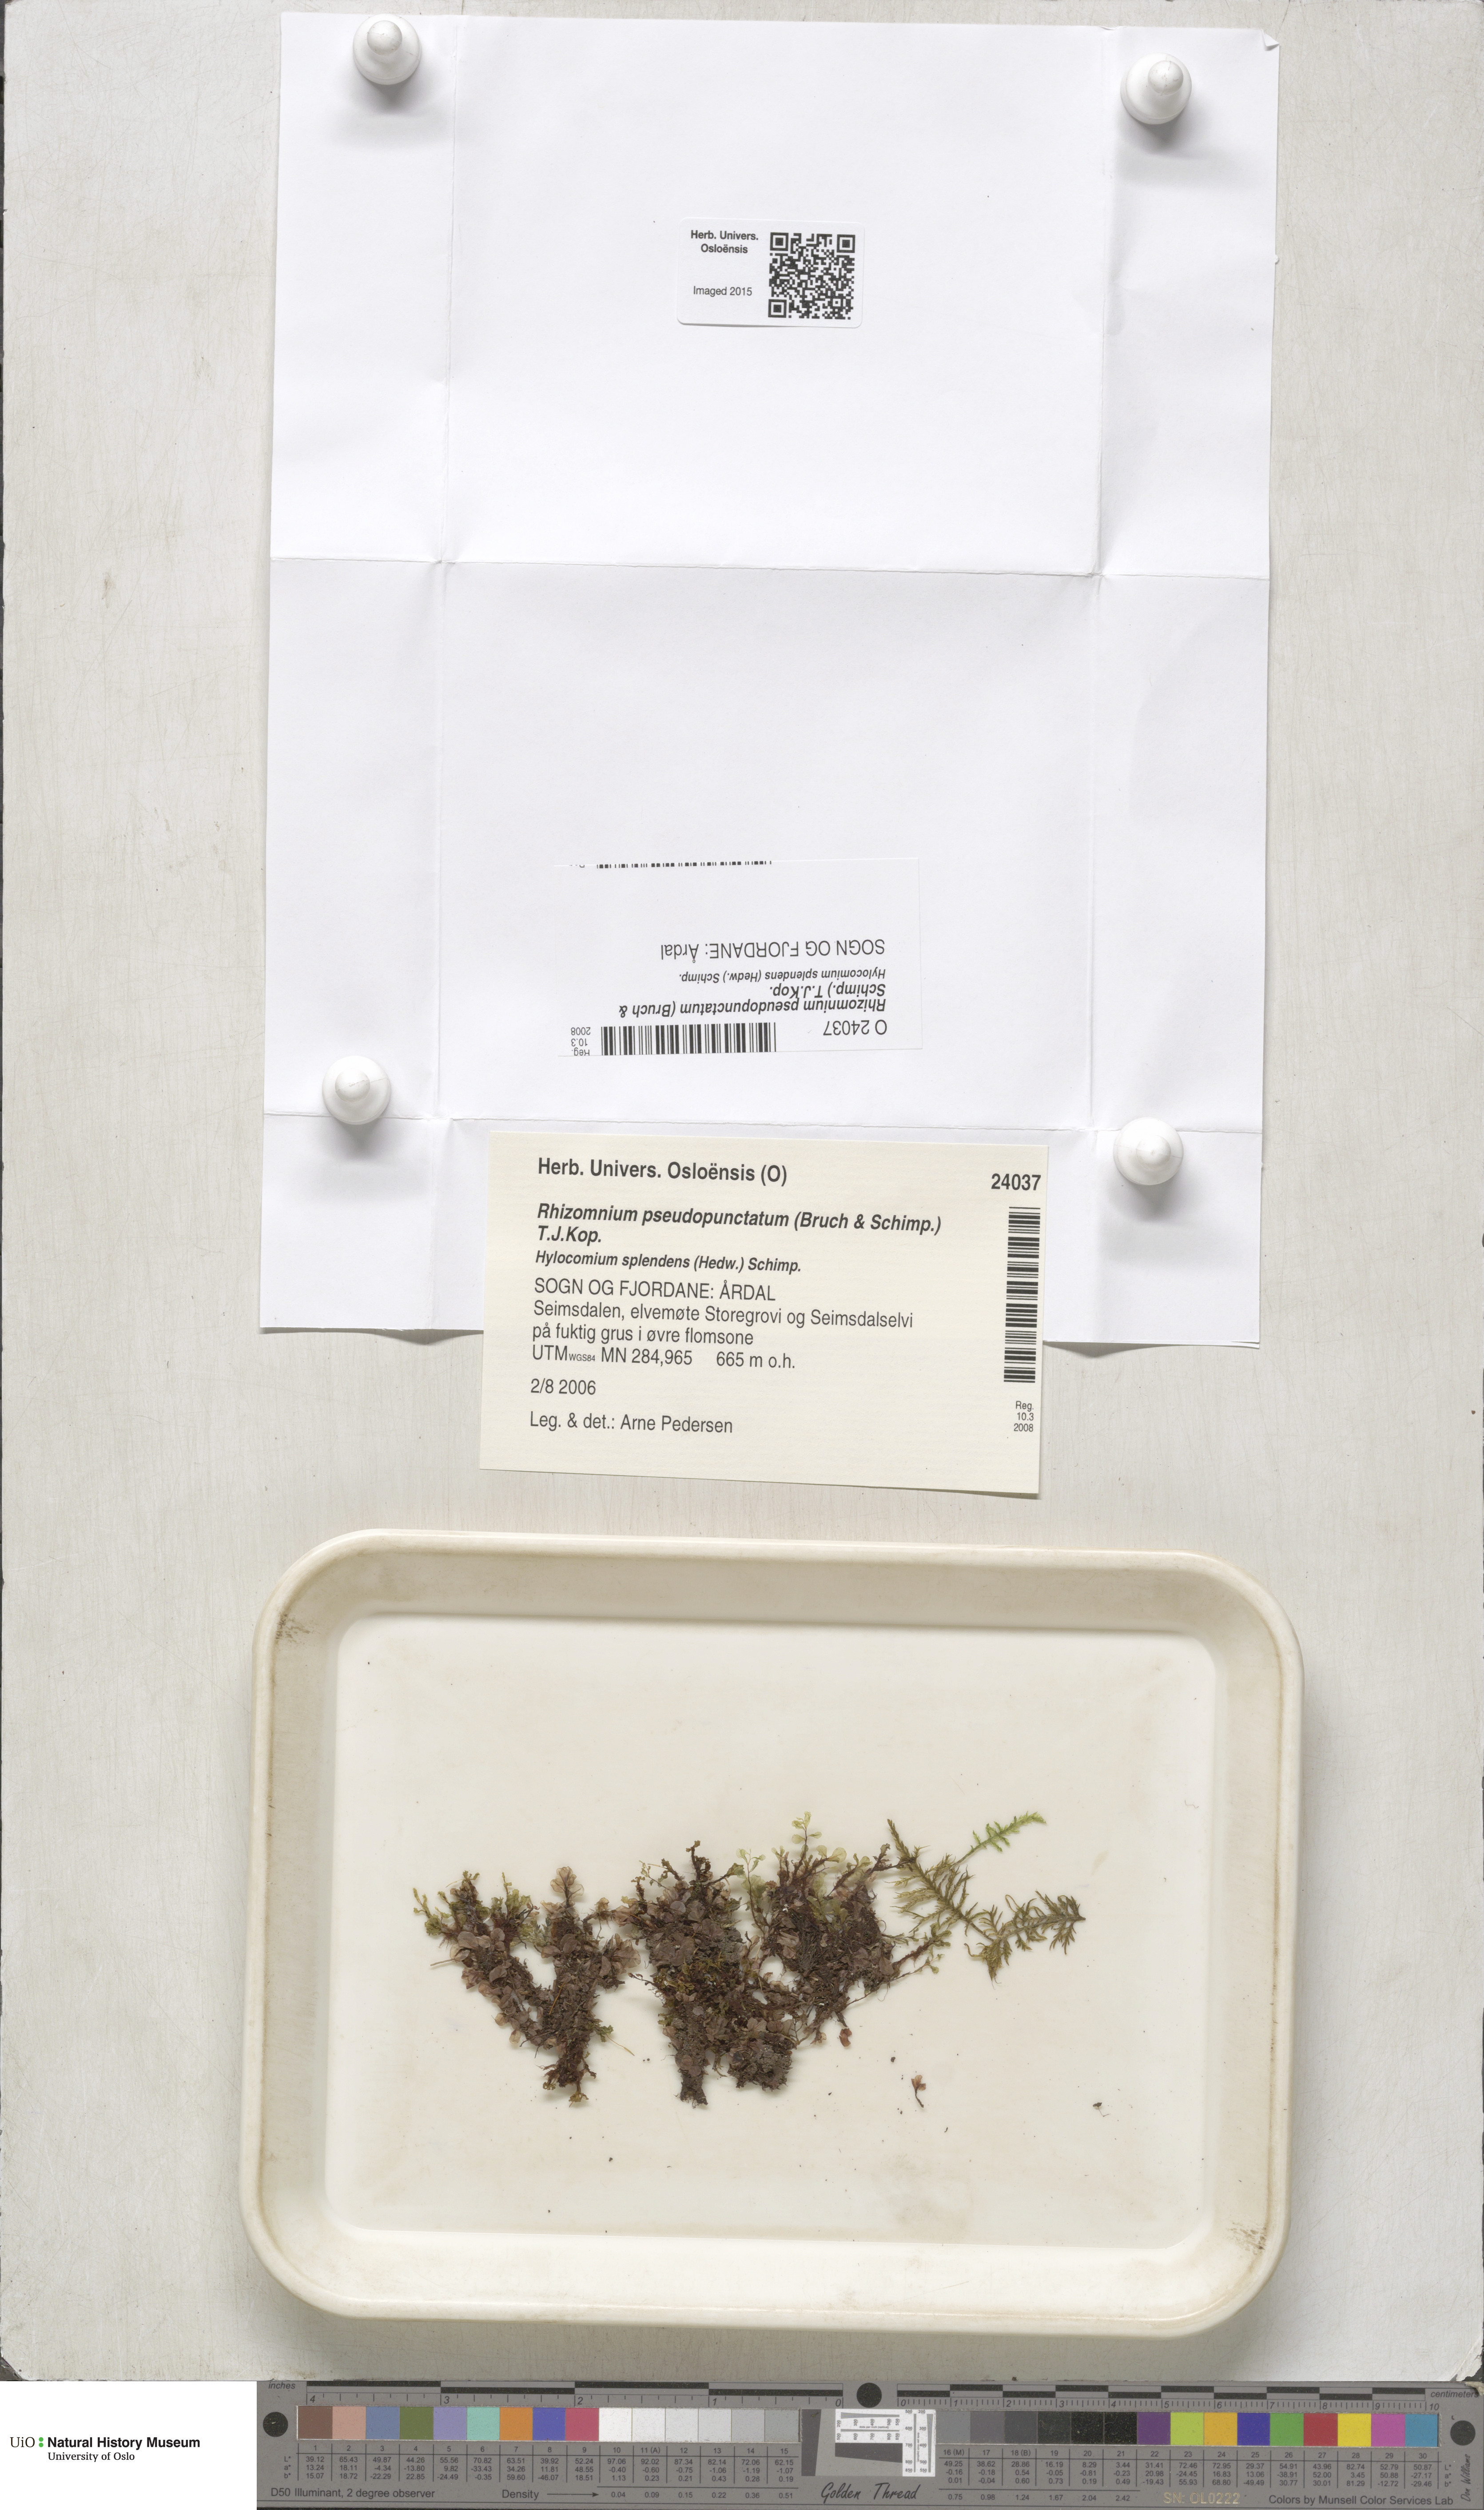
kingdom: Plantae
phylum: Bryophyta
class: Bryopsida
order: Bryales
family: Mniaceae
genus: Rhizomnium
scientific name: Rhizomnium pseudopunctatum
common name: Felted leafy moss
